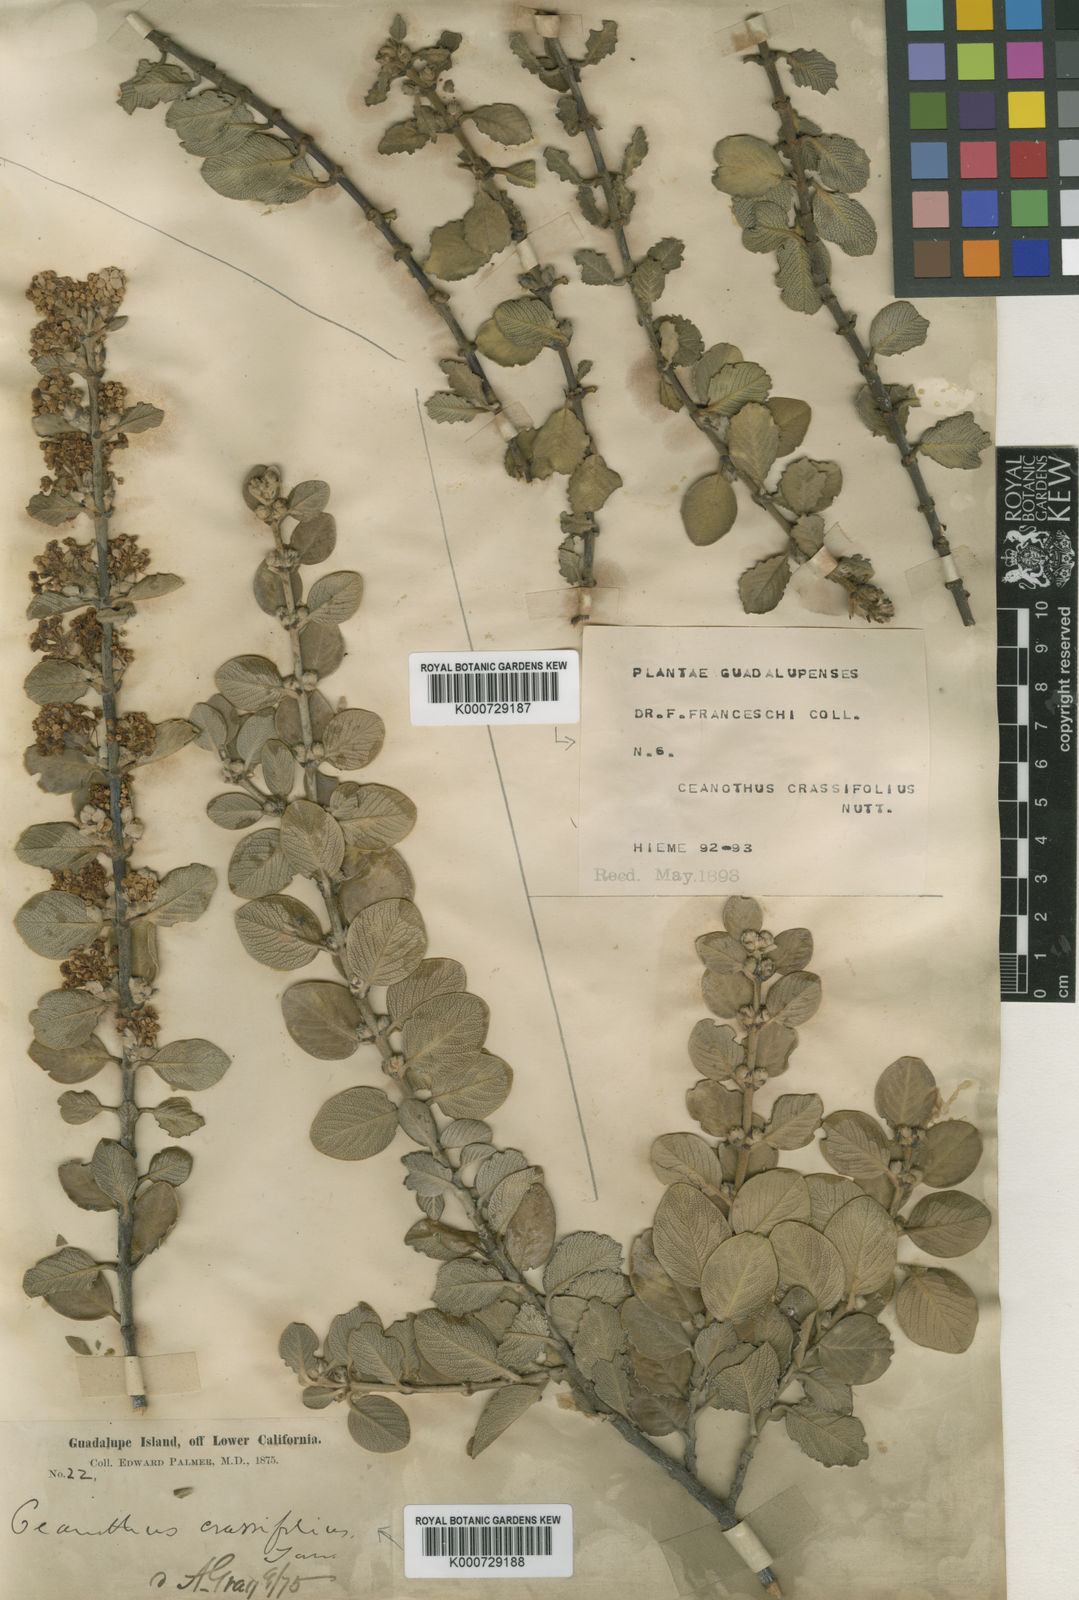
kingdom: Plantae
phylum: Tracheophyta
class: Magnoliopsida
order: Rosales
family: Rhamnaceae
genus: Ceanothus
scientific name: Ceanothus crassifolius
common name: Hoaryleaf ceanothus
